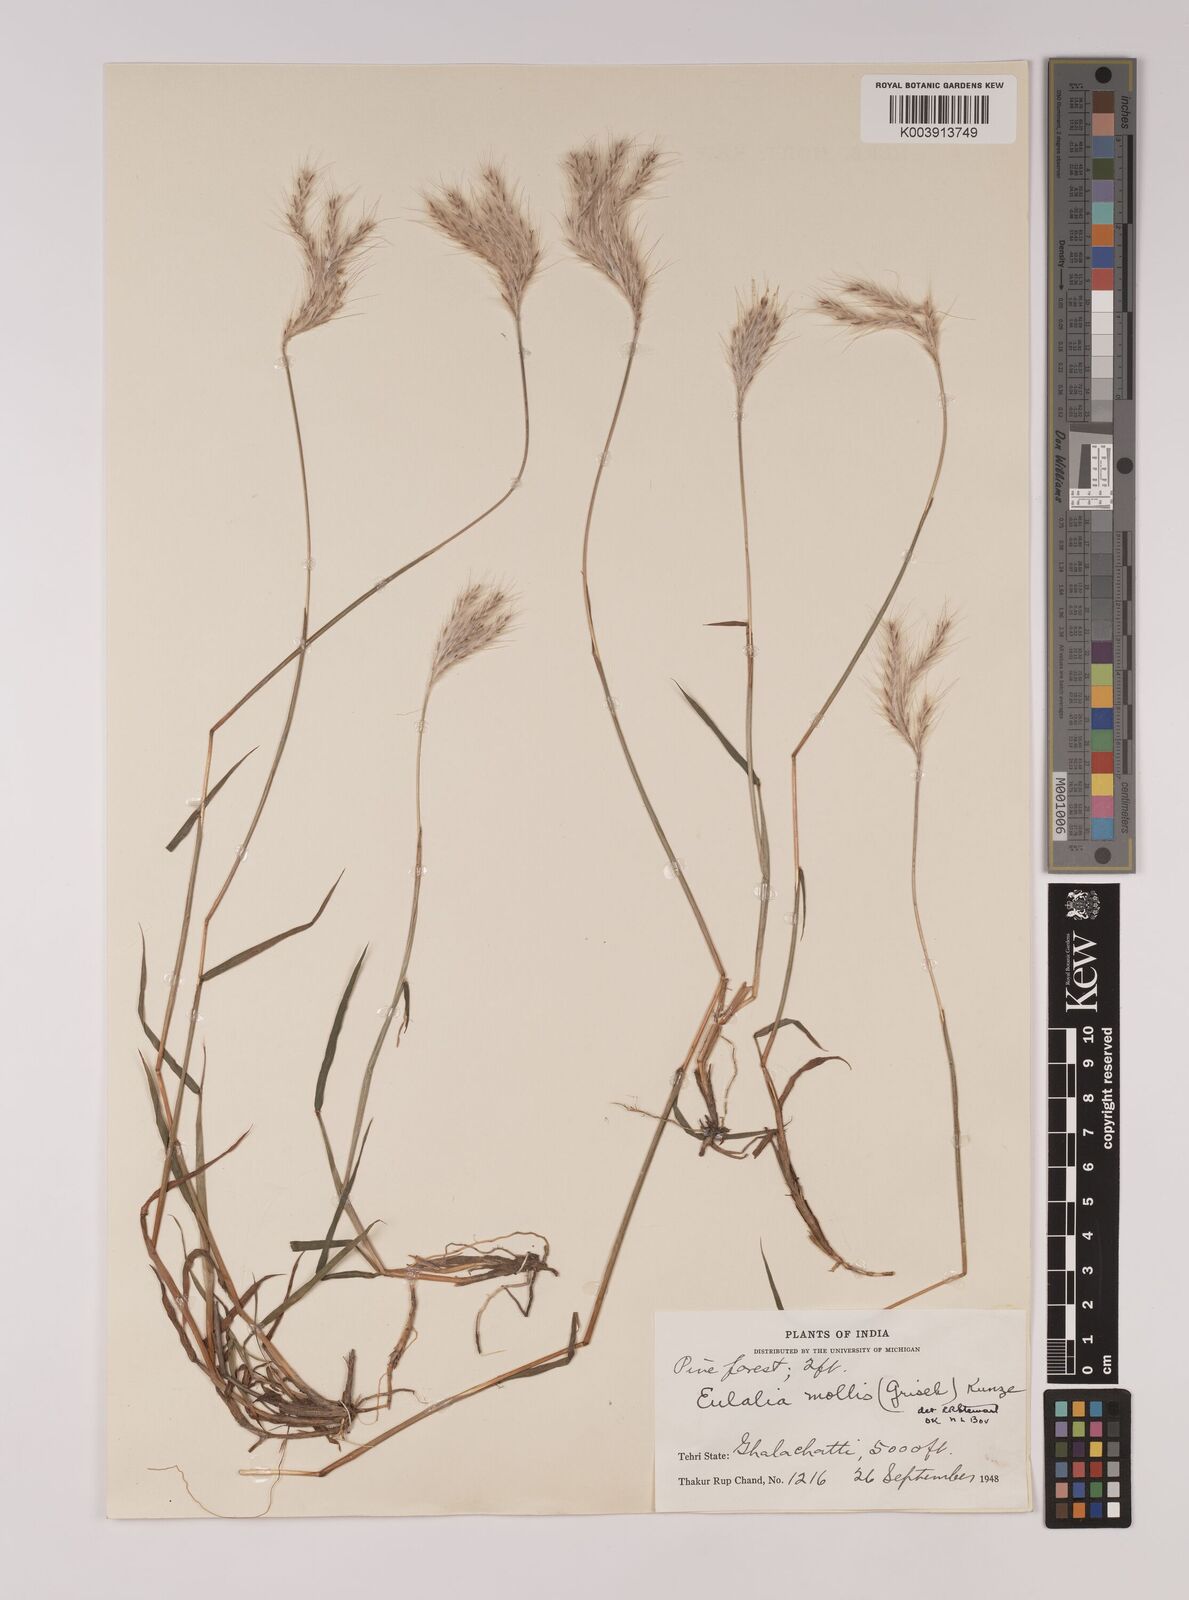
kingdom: Plantae
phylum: Tracheophyta
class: Liliopsida
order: Poales
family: Poaceae
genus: Eulalia
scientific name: Eulalia mollis
